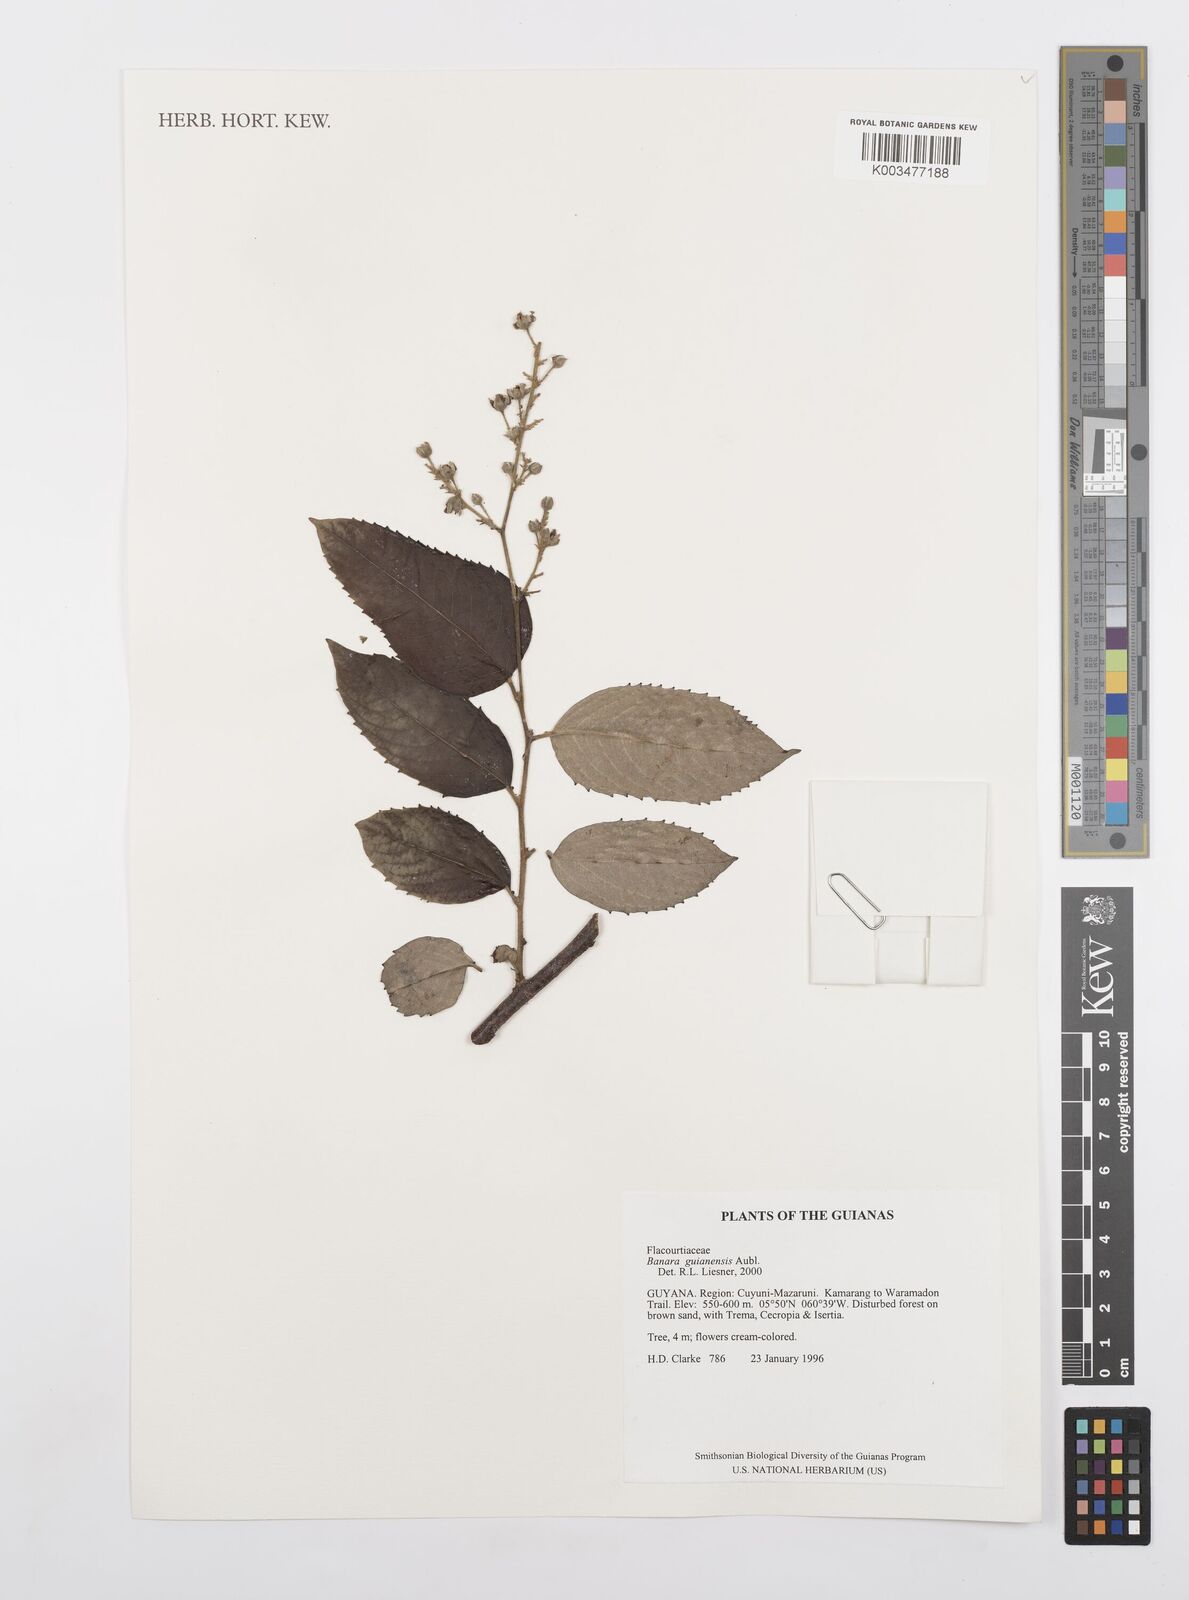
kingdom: Plantae
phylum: Tracheophyta
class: Magnoliopsida
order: Malpighiales
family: Salicaceae
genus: Banara
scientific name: Banara guianensis
